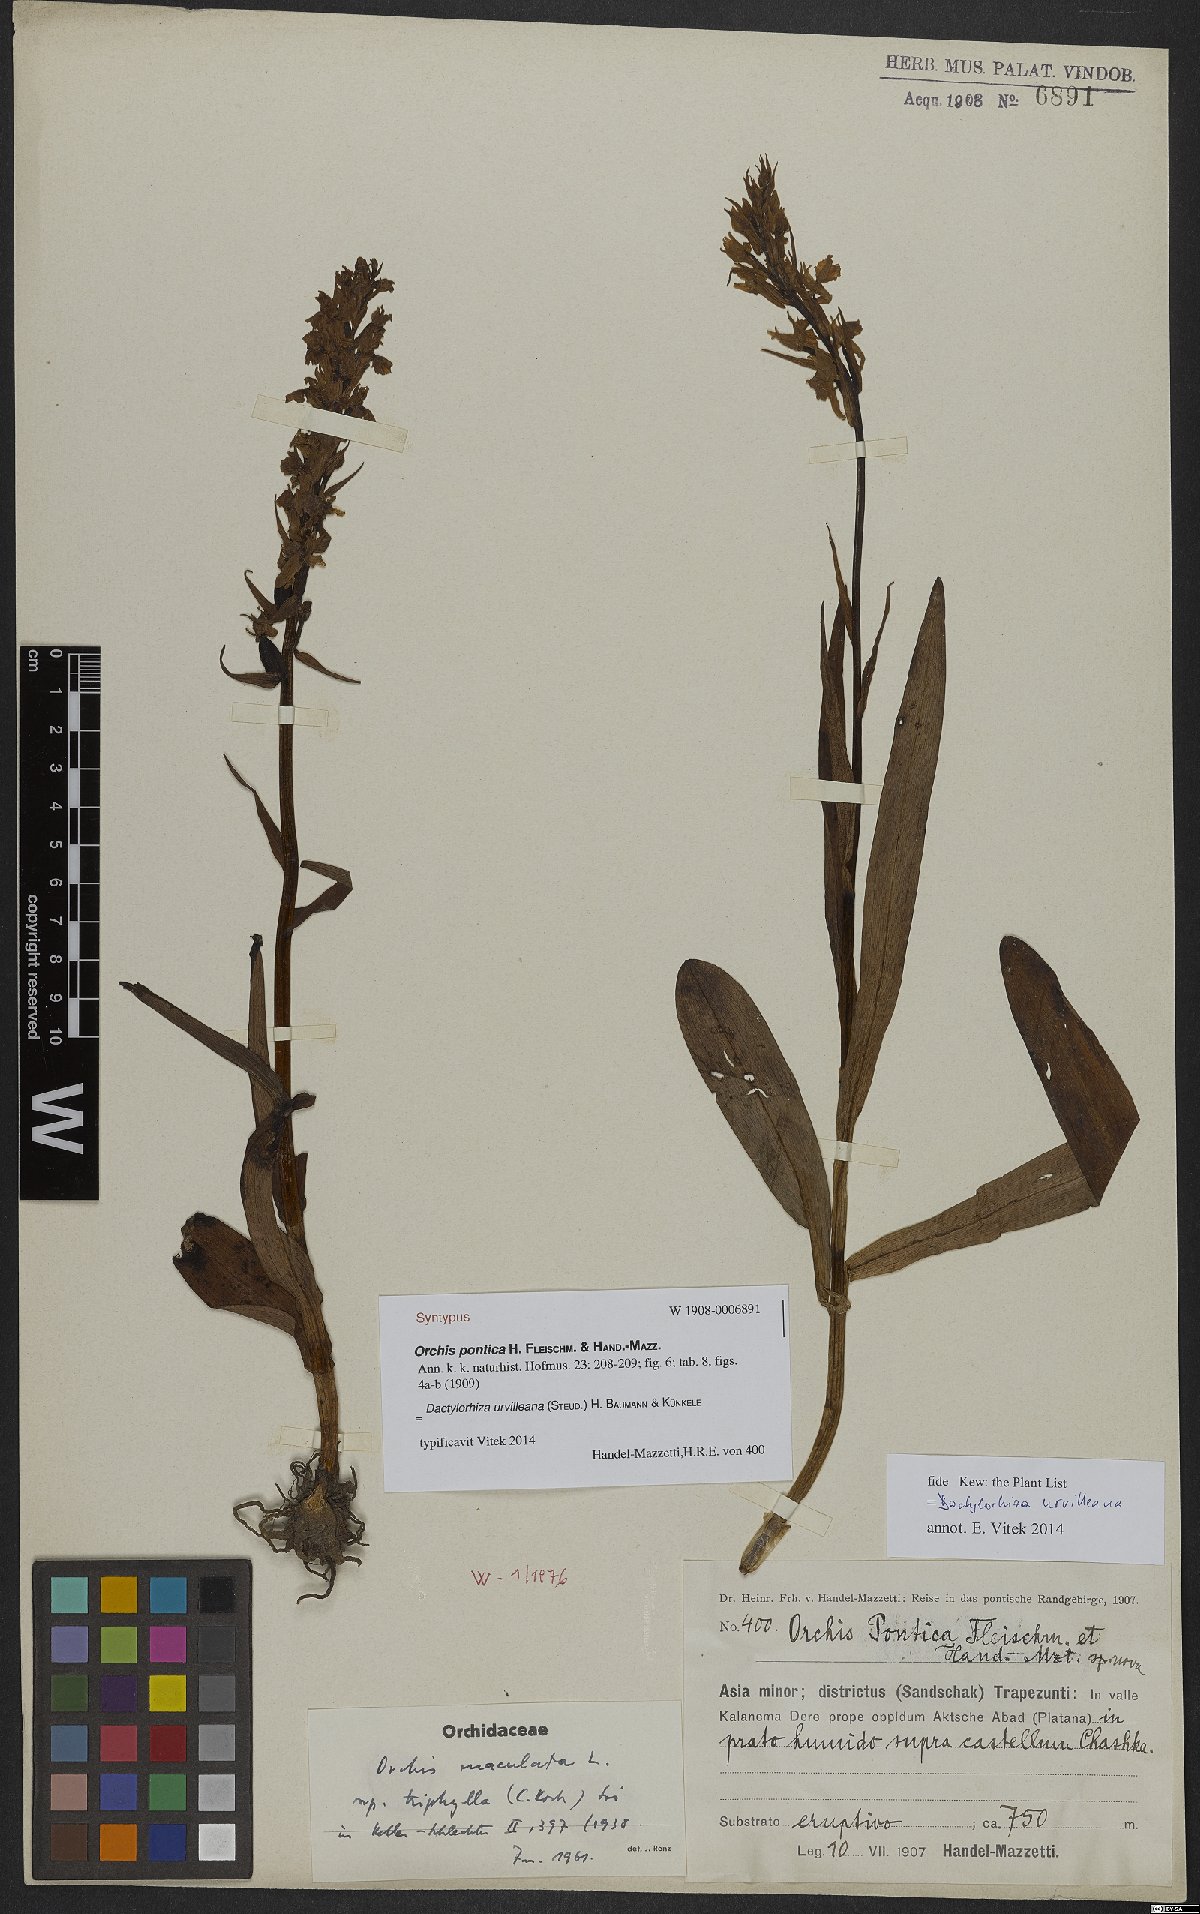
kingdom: Plantae
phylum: Tracheophyta
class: Liliopsida
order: Asparagales
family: Orchidaceae
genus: Dactylorhiza
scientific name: Dactylorhiza urvilleana
